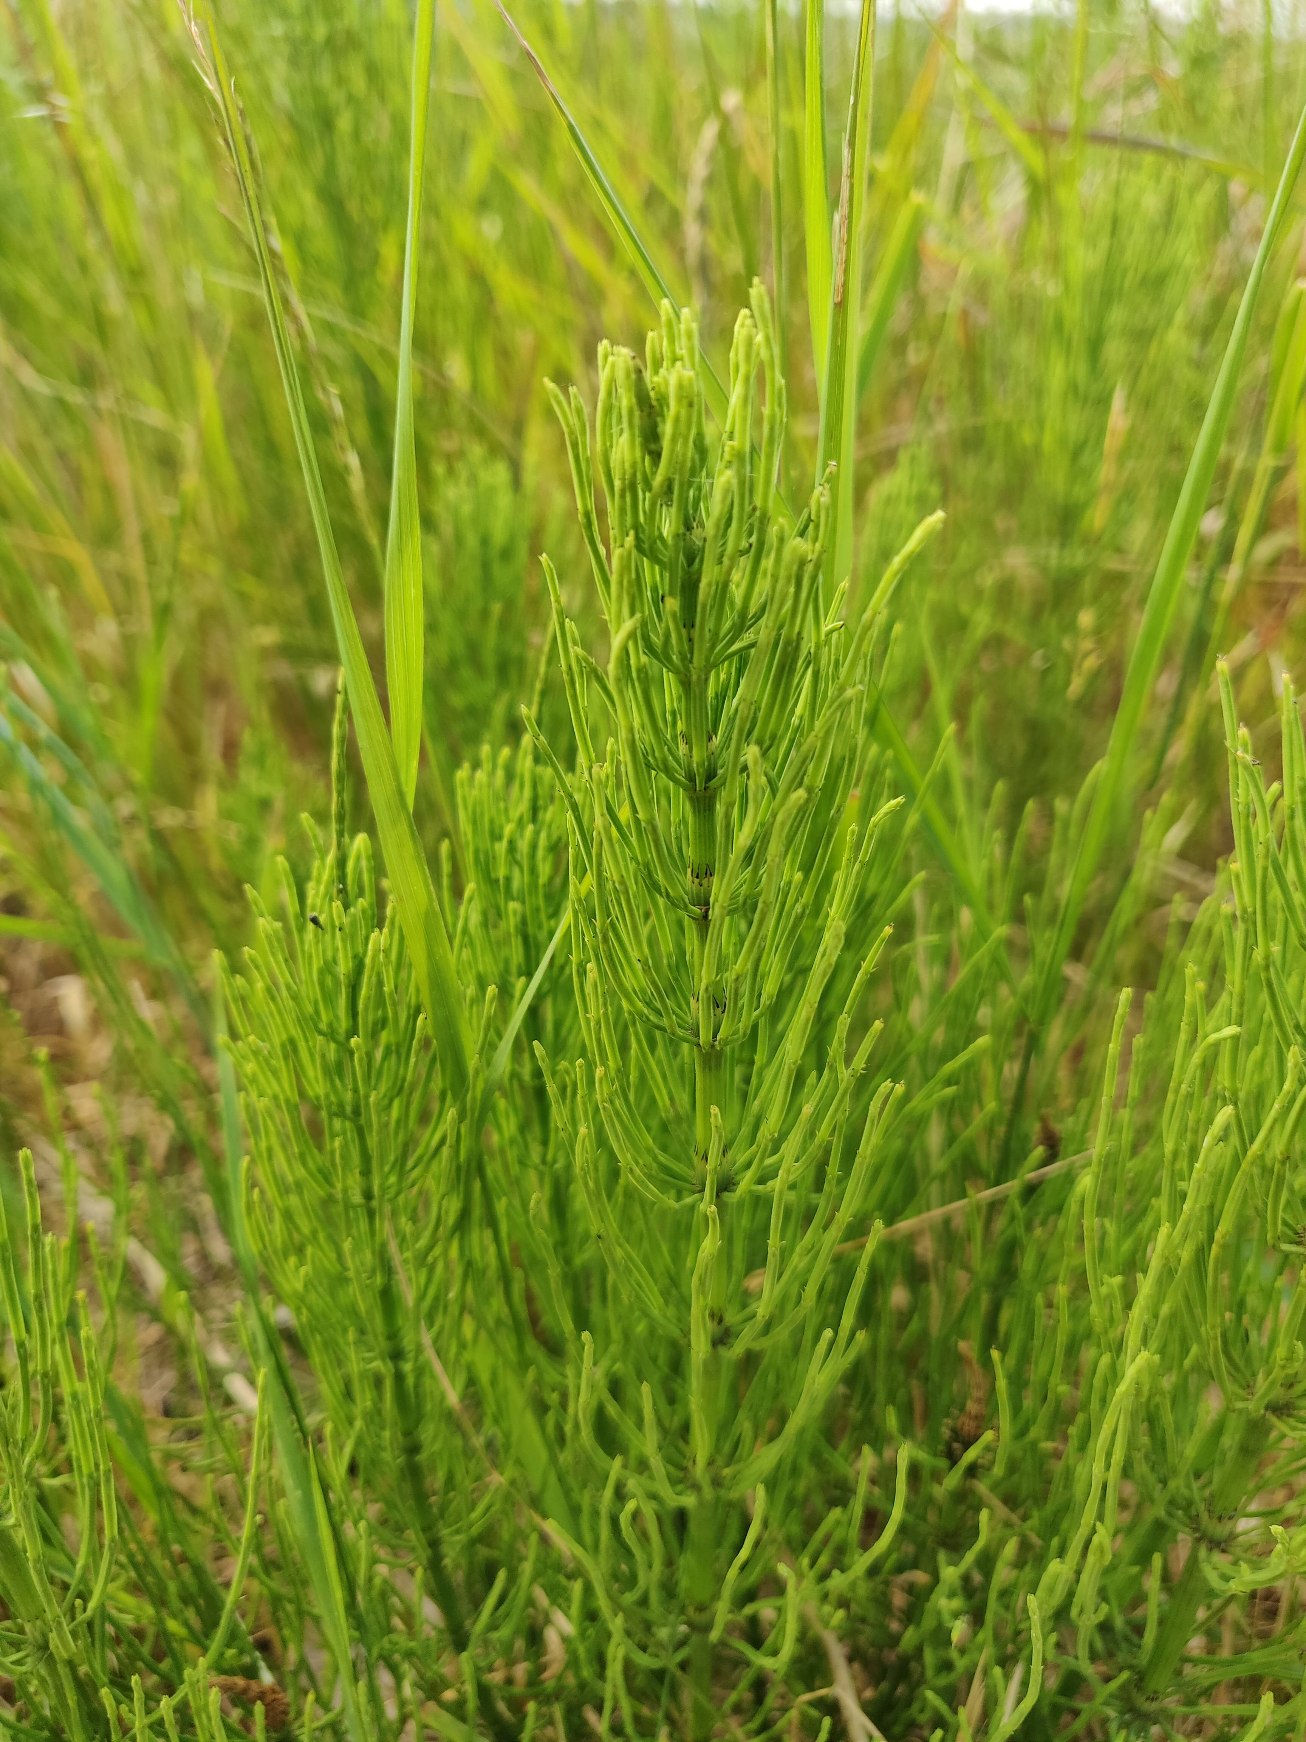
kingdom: Plantae
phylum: Tracheophyta
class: Polypodiopsida
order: Equisetales
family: Equisetaceae
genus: Equisetum
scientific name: Equisetum arvense
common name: Ager-padderok
